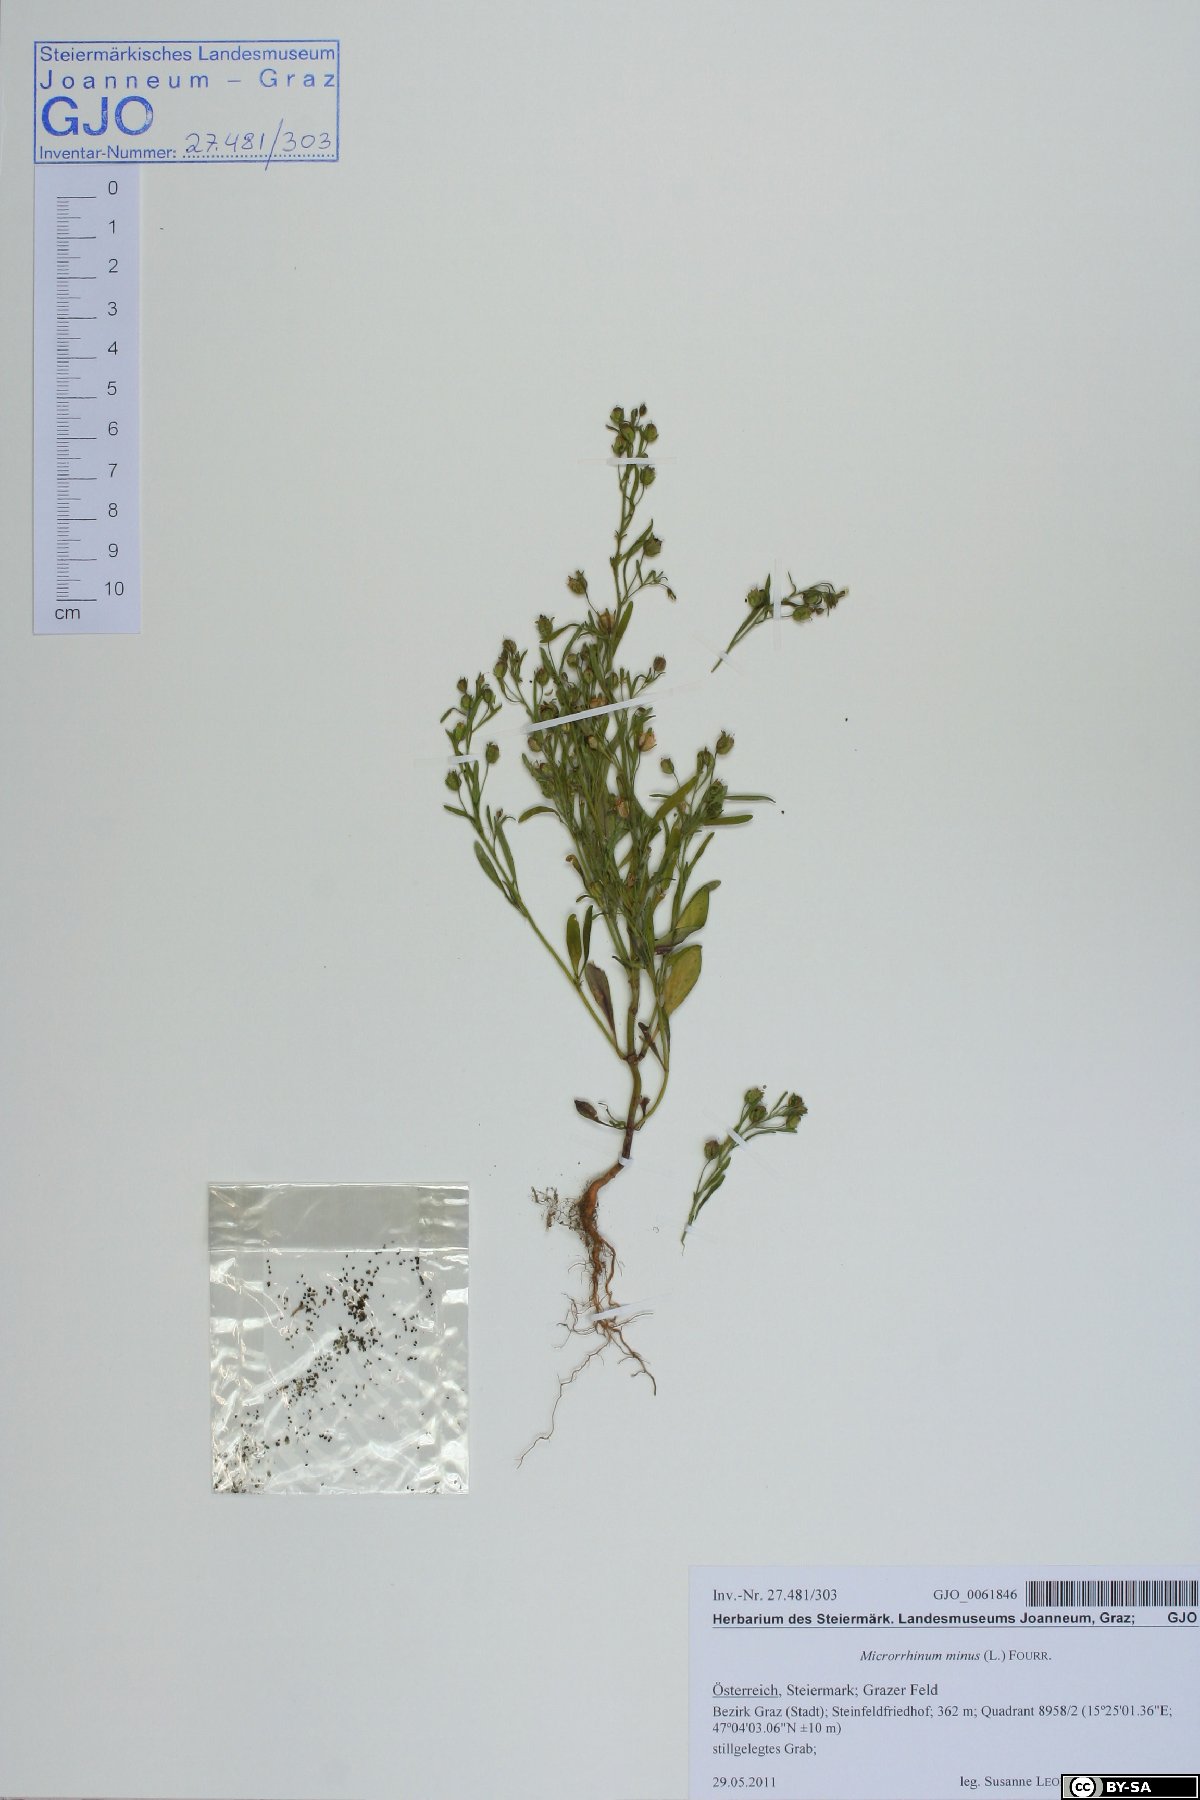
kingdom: Plantae
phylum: Tracheophyta
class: Magnoliopsida
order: Lamiales
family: Plantaginaceae
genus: Chaenorhinum
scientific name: Chaenorhinum minus
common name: Dwarf snapdragon
